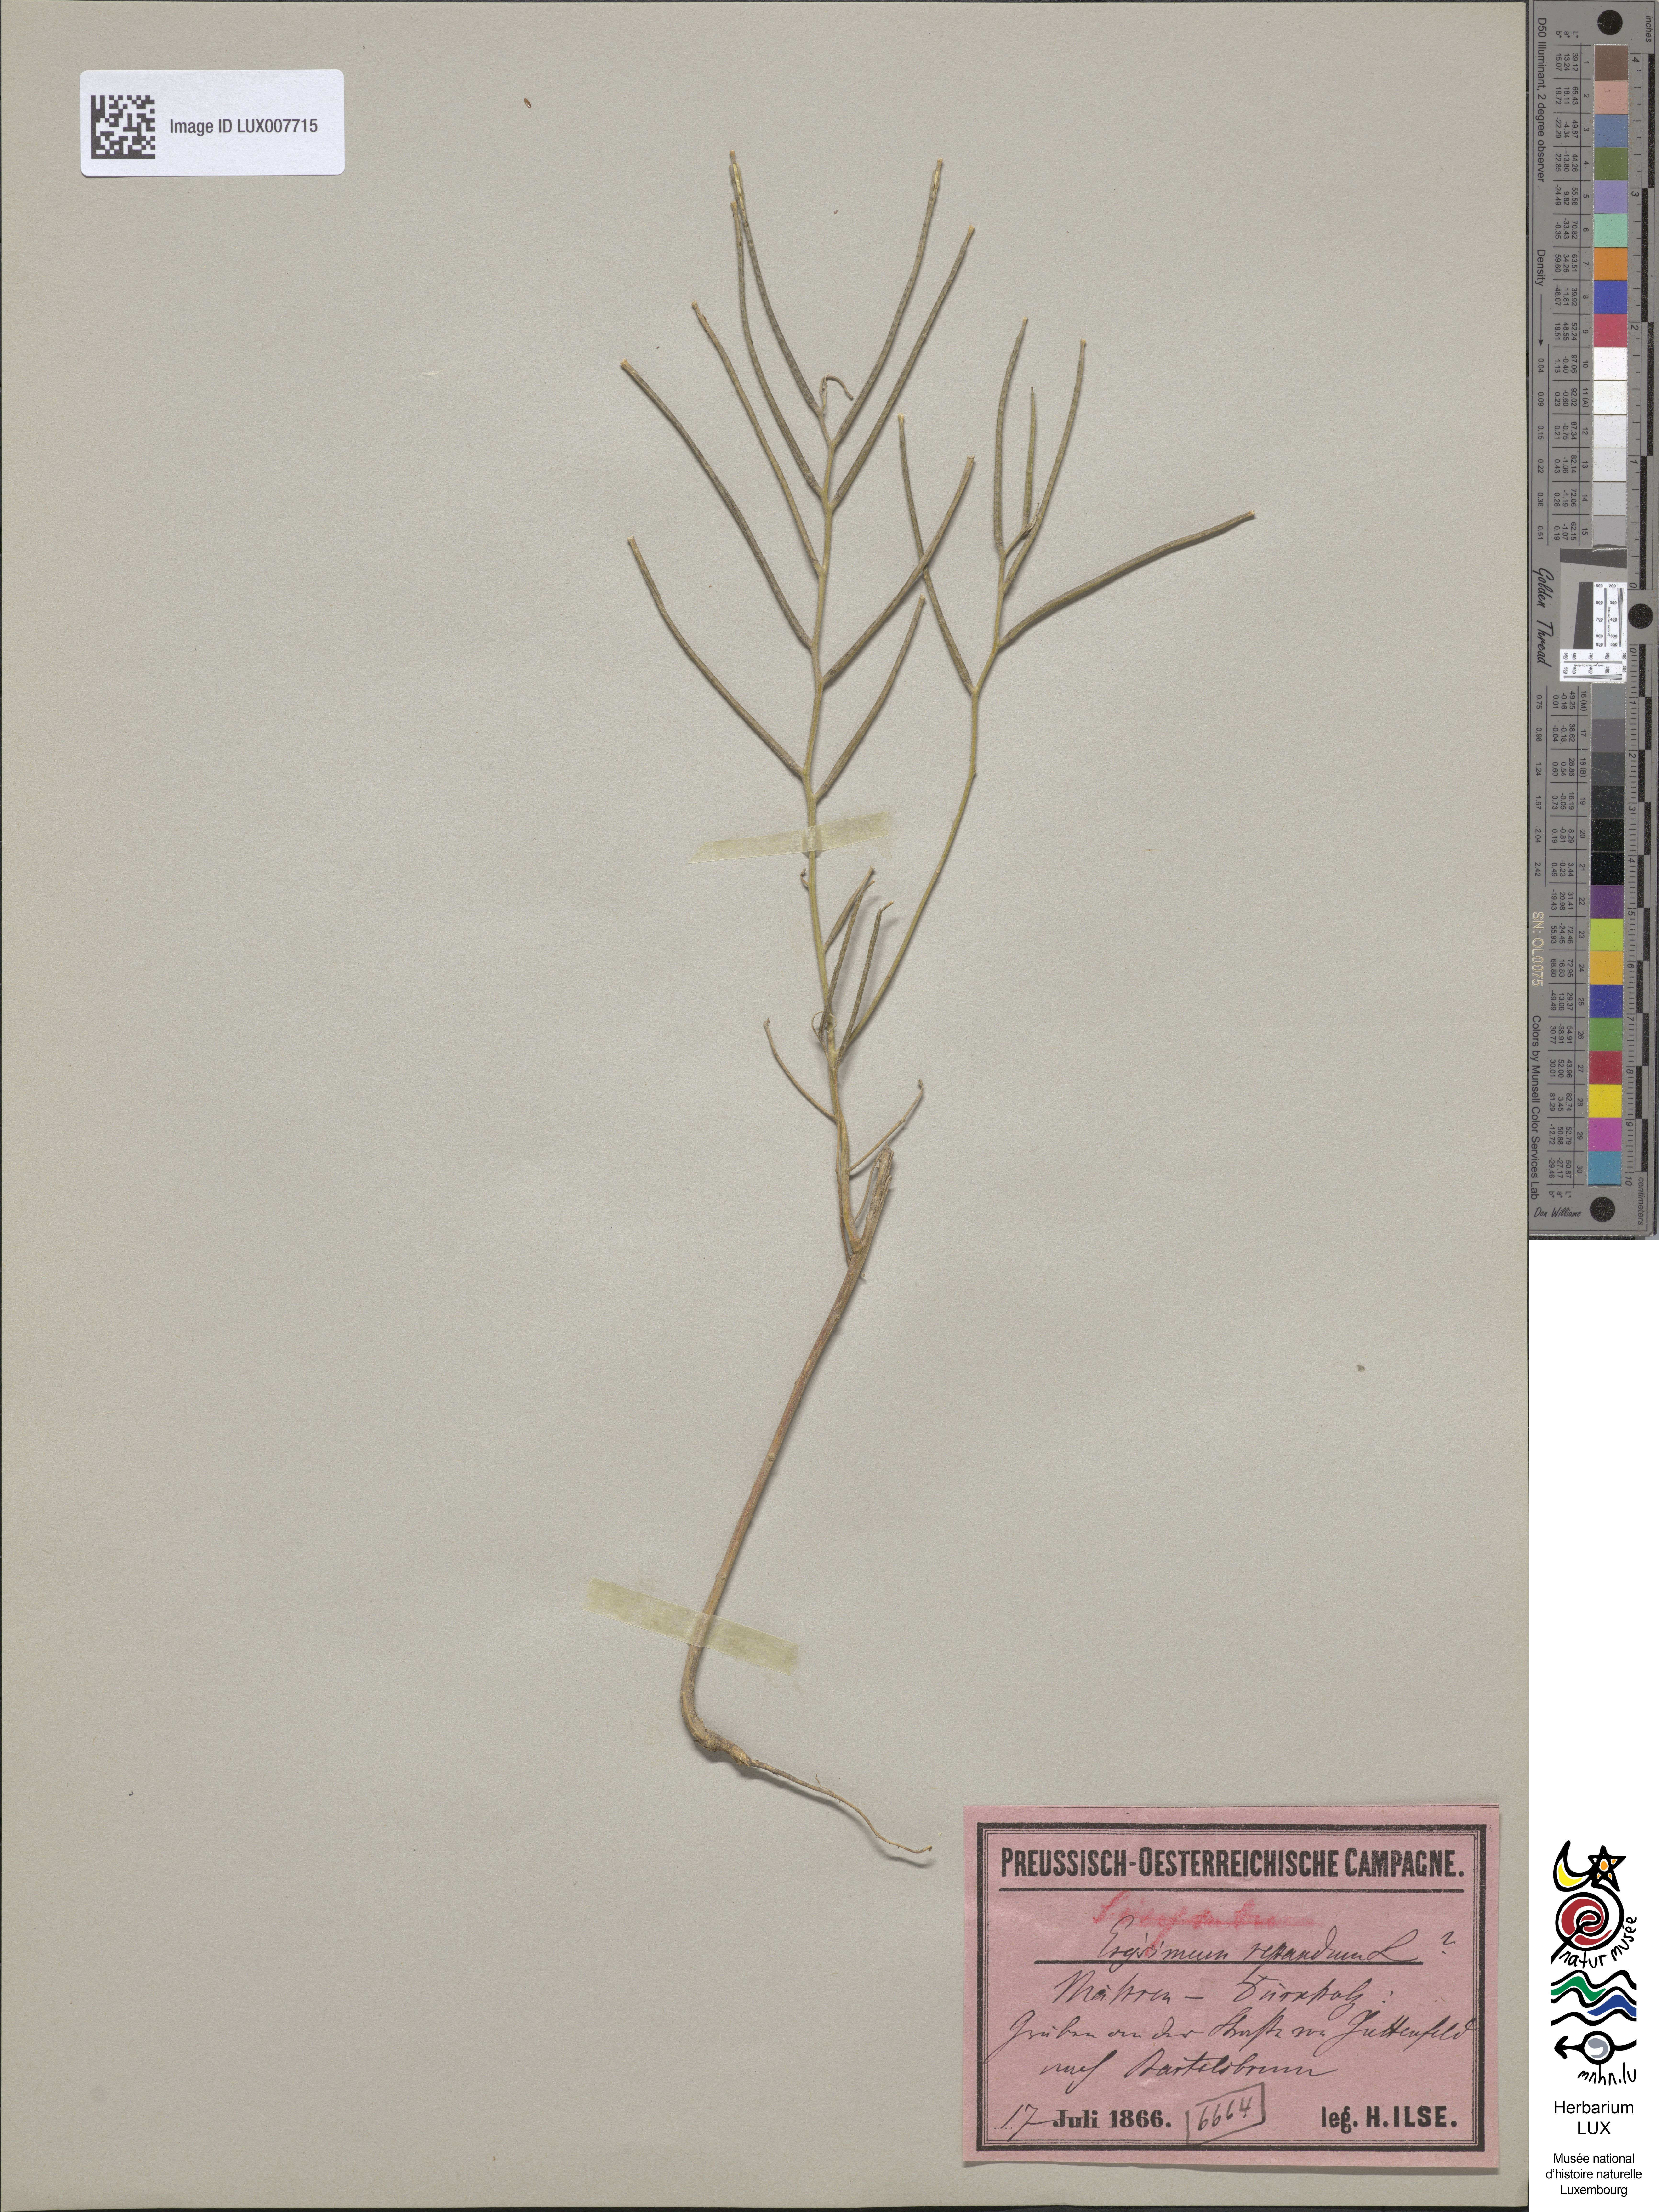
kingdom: Plantae
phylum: Tracheophyta
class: Magnoliopsida
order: Brassicales
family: Brassicaceae
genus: Erysimum
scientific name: Erysimum repandum
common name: Spreading wallflower
